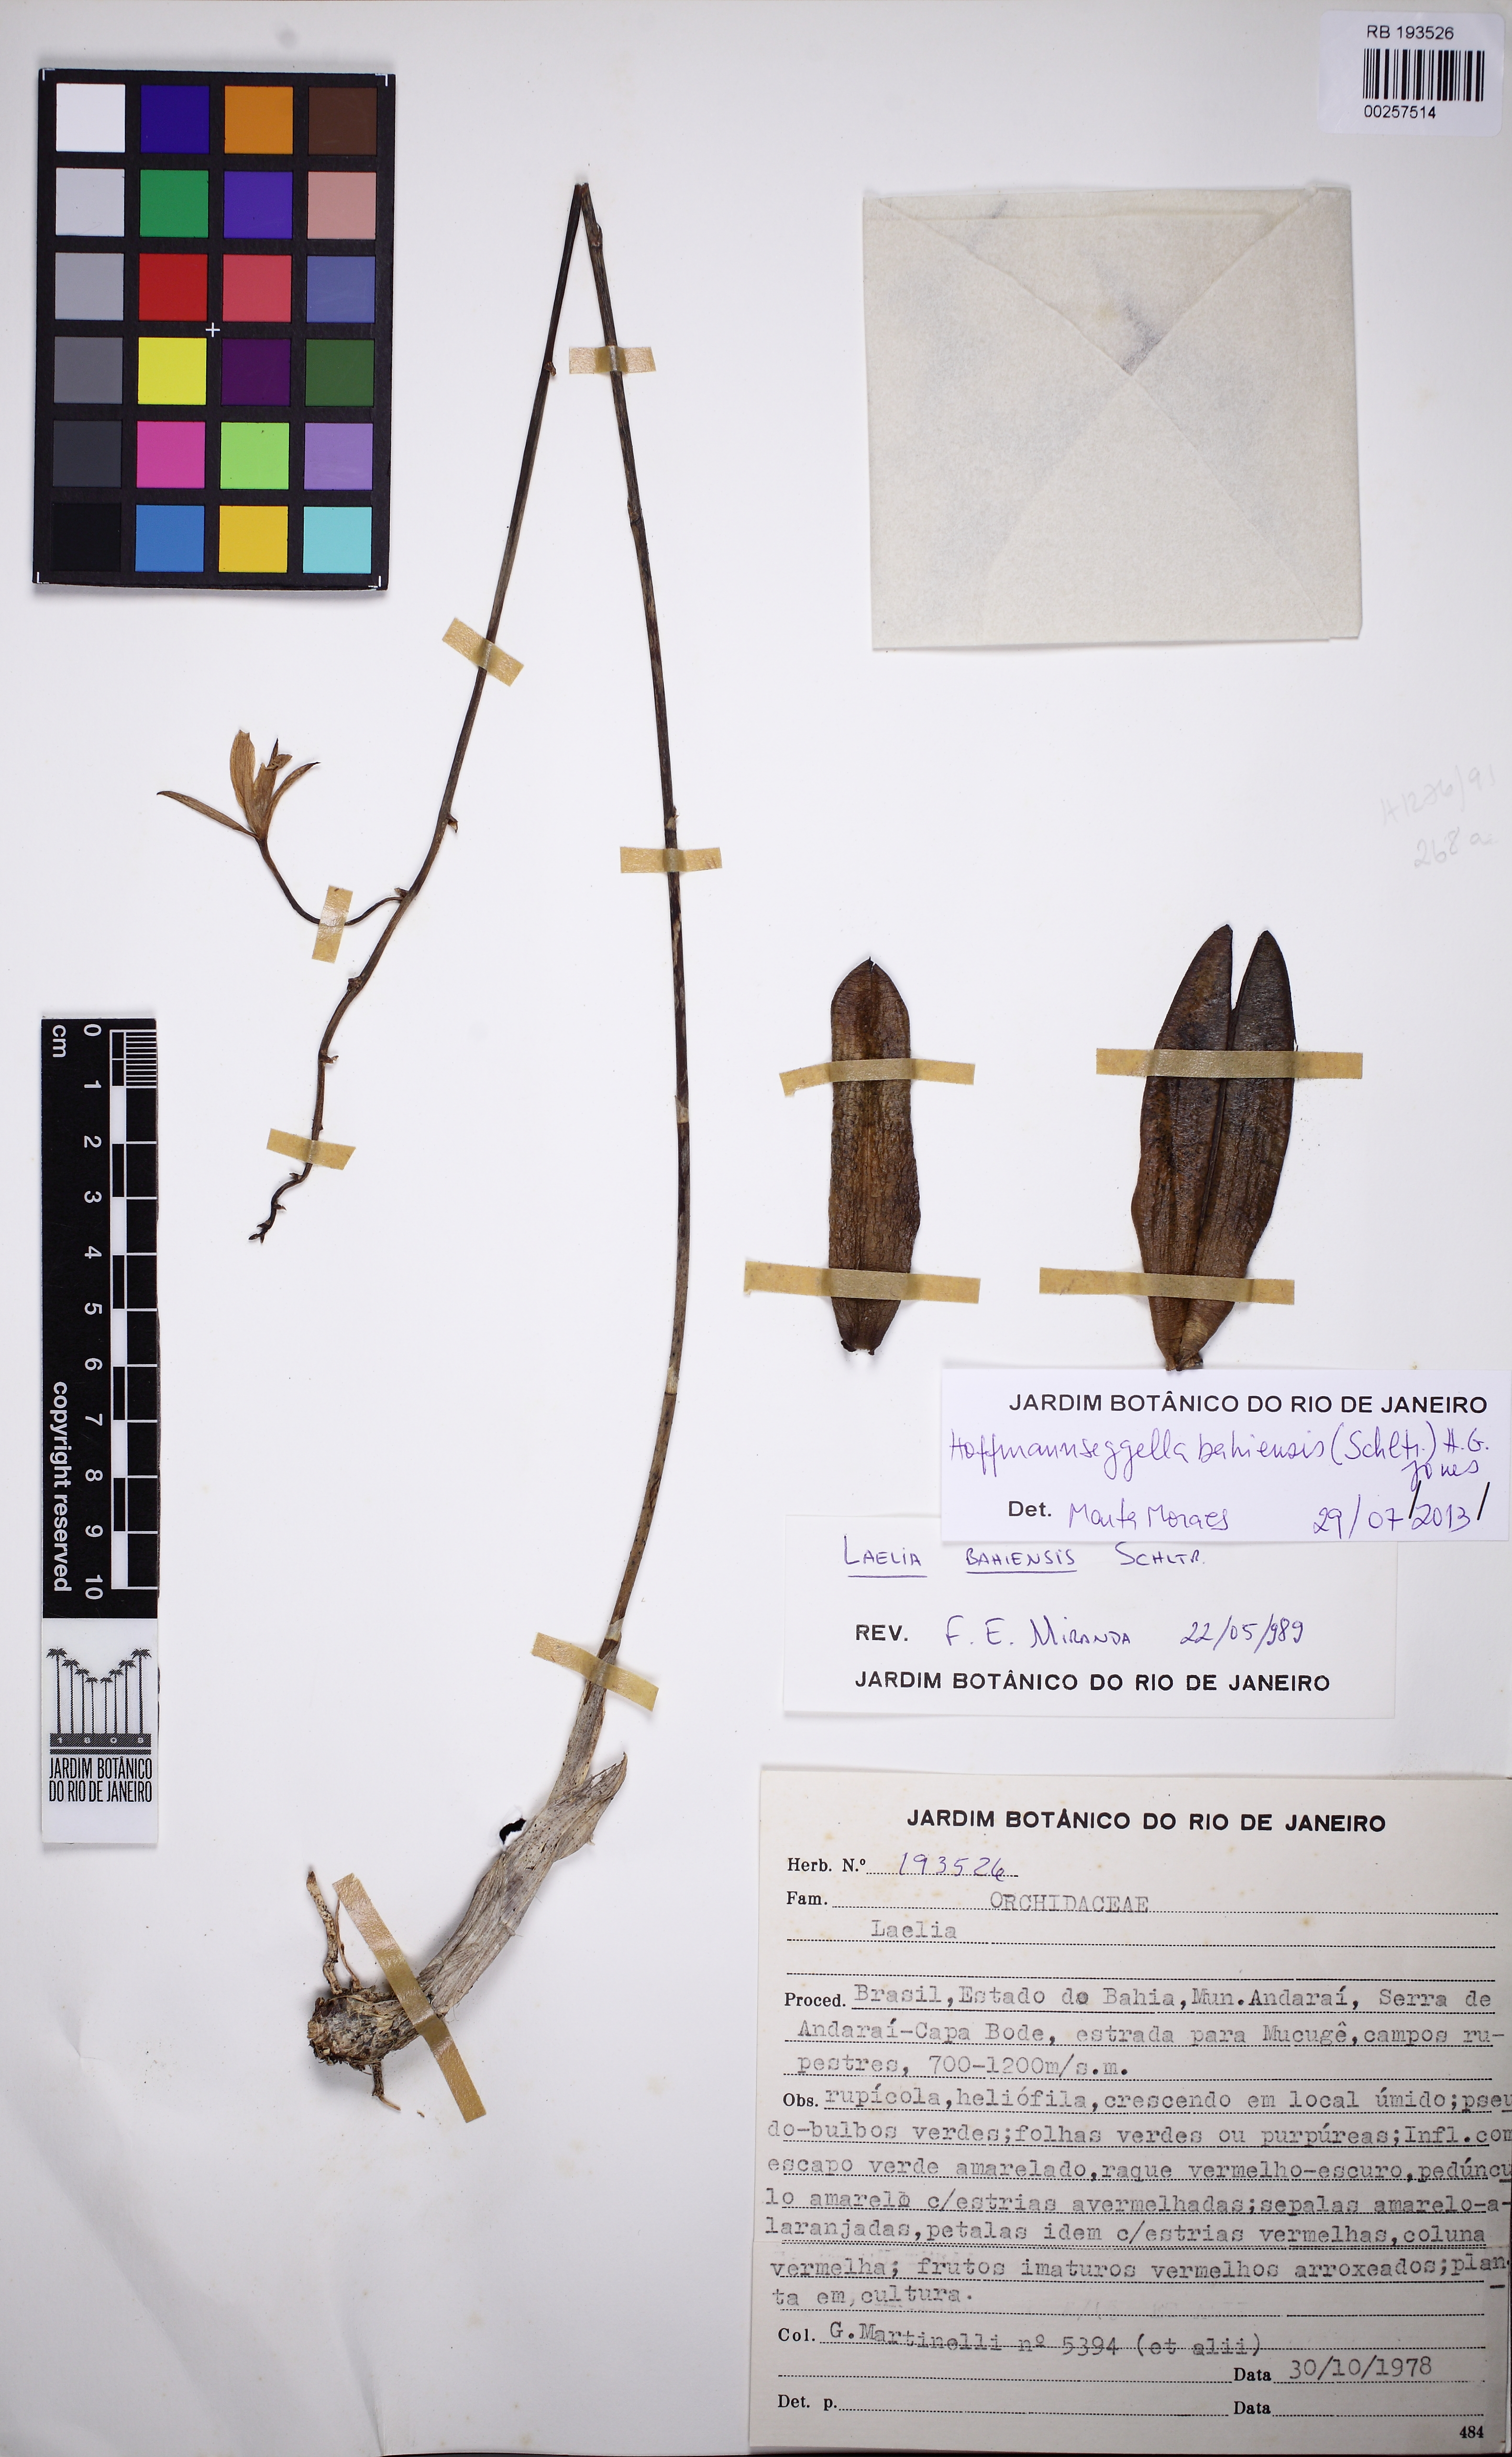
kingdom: Plantae
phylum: Tracheophyta
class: Liliopsida
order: Asparagales
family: Orchidaceae
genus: Cattleya
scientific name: Cattleya luetzelburgii
